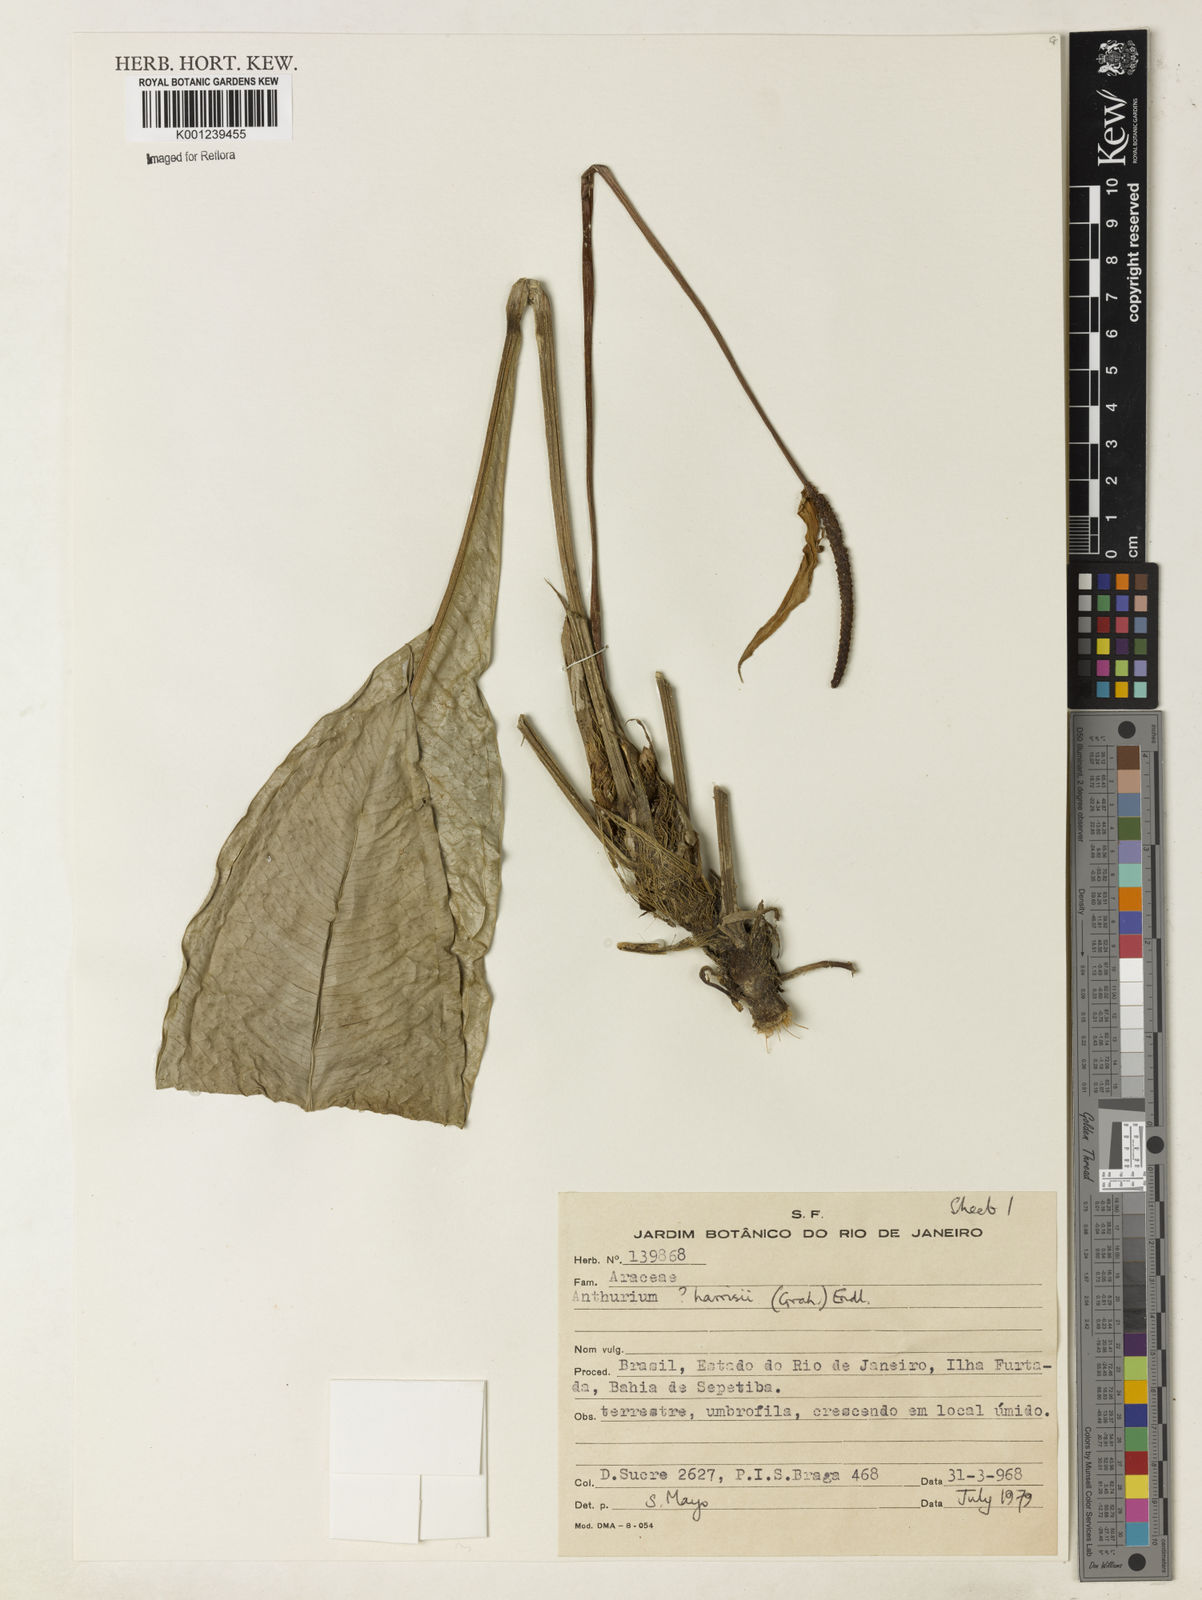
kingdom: Plantae
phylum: Tracheophyta
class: Liliopsida
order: Alismatales
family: Araceae
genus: Anthurium
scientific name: Anthurium harrisii
